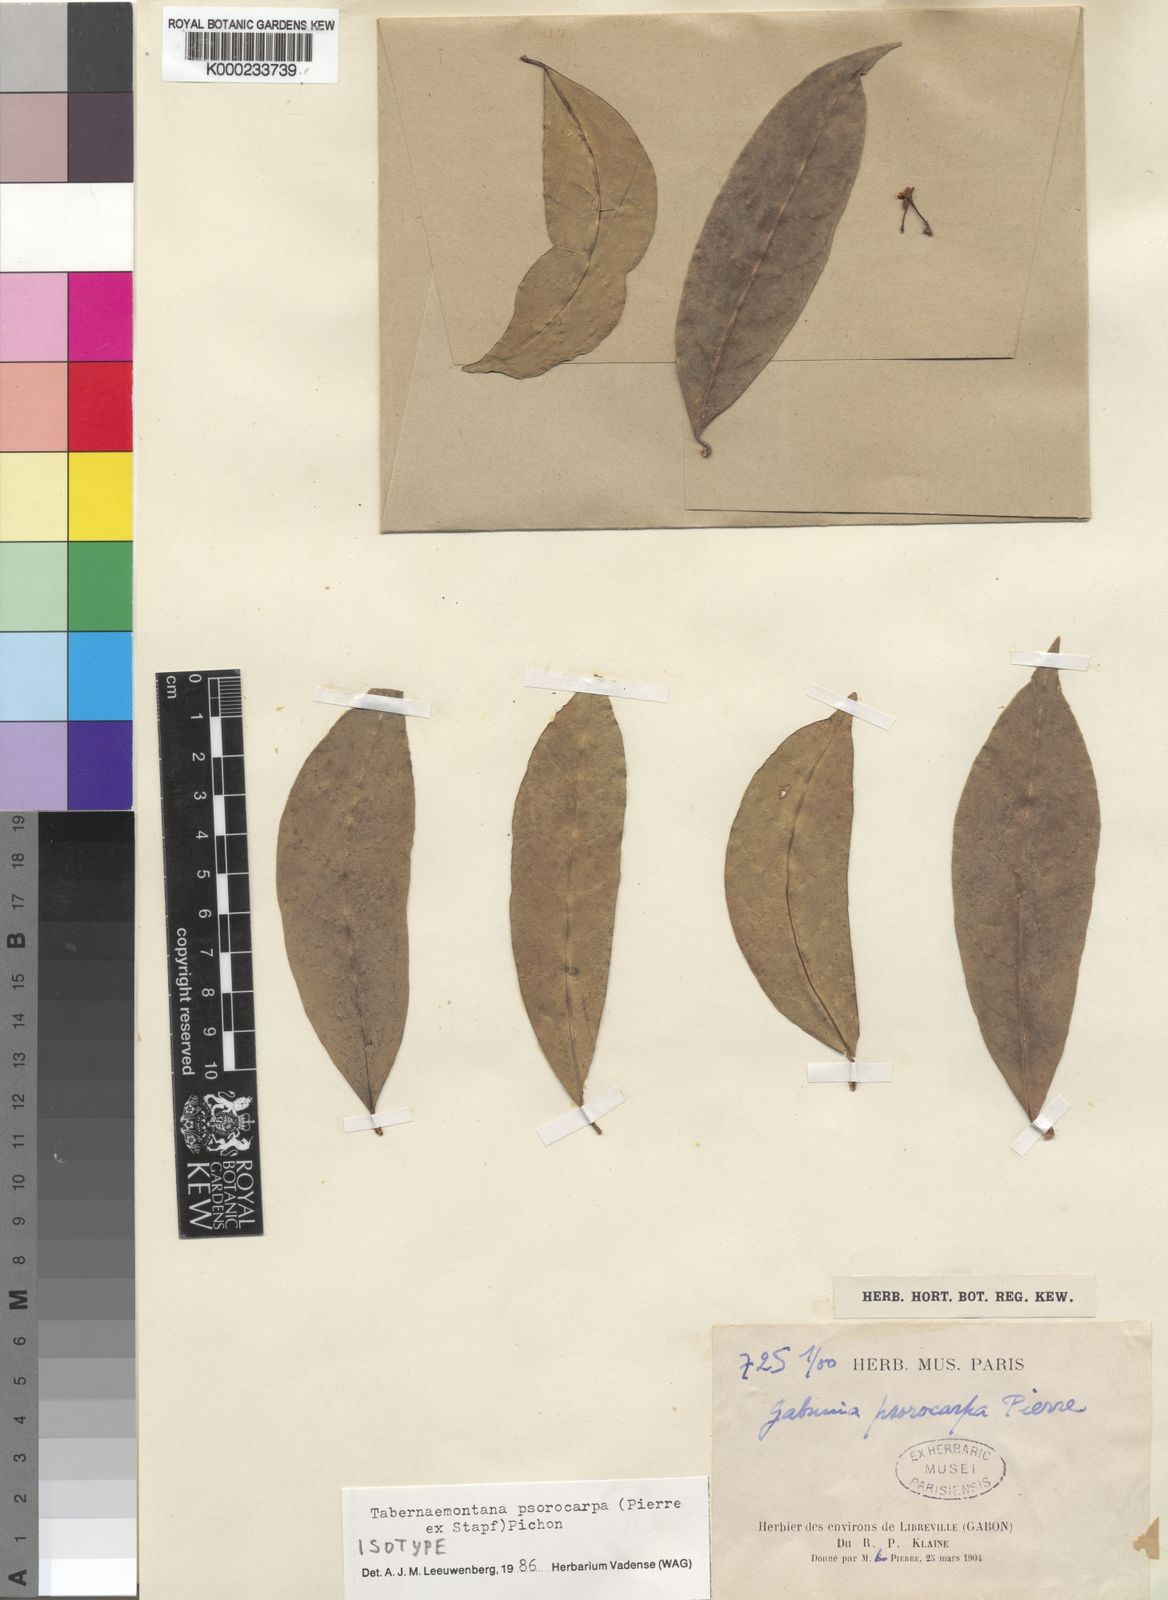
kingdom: Plantae
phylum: Tracheophyta
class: Magnoliopsida
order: Gentianales
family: Apocynaceae
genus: Tabernaemontana
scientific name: Tabernaemontana psorocarpa
